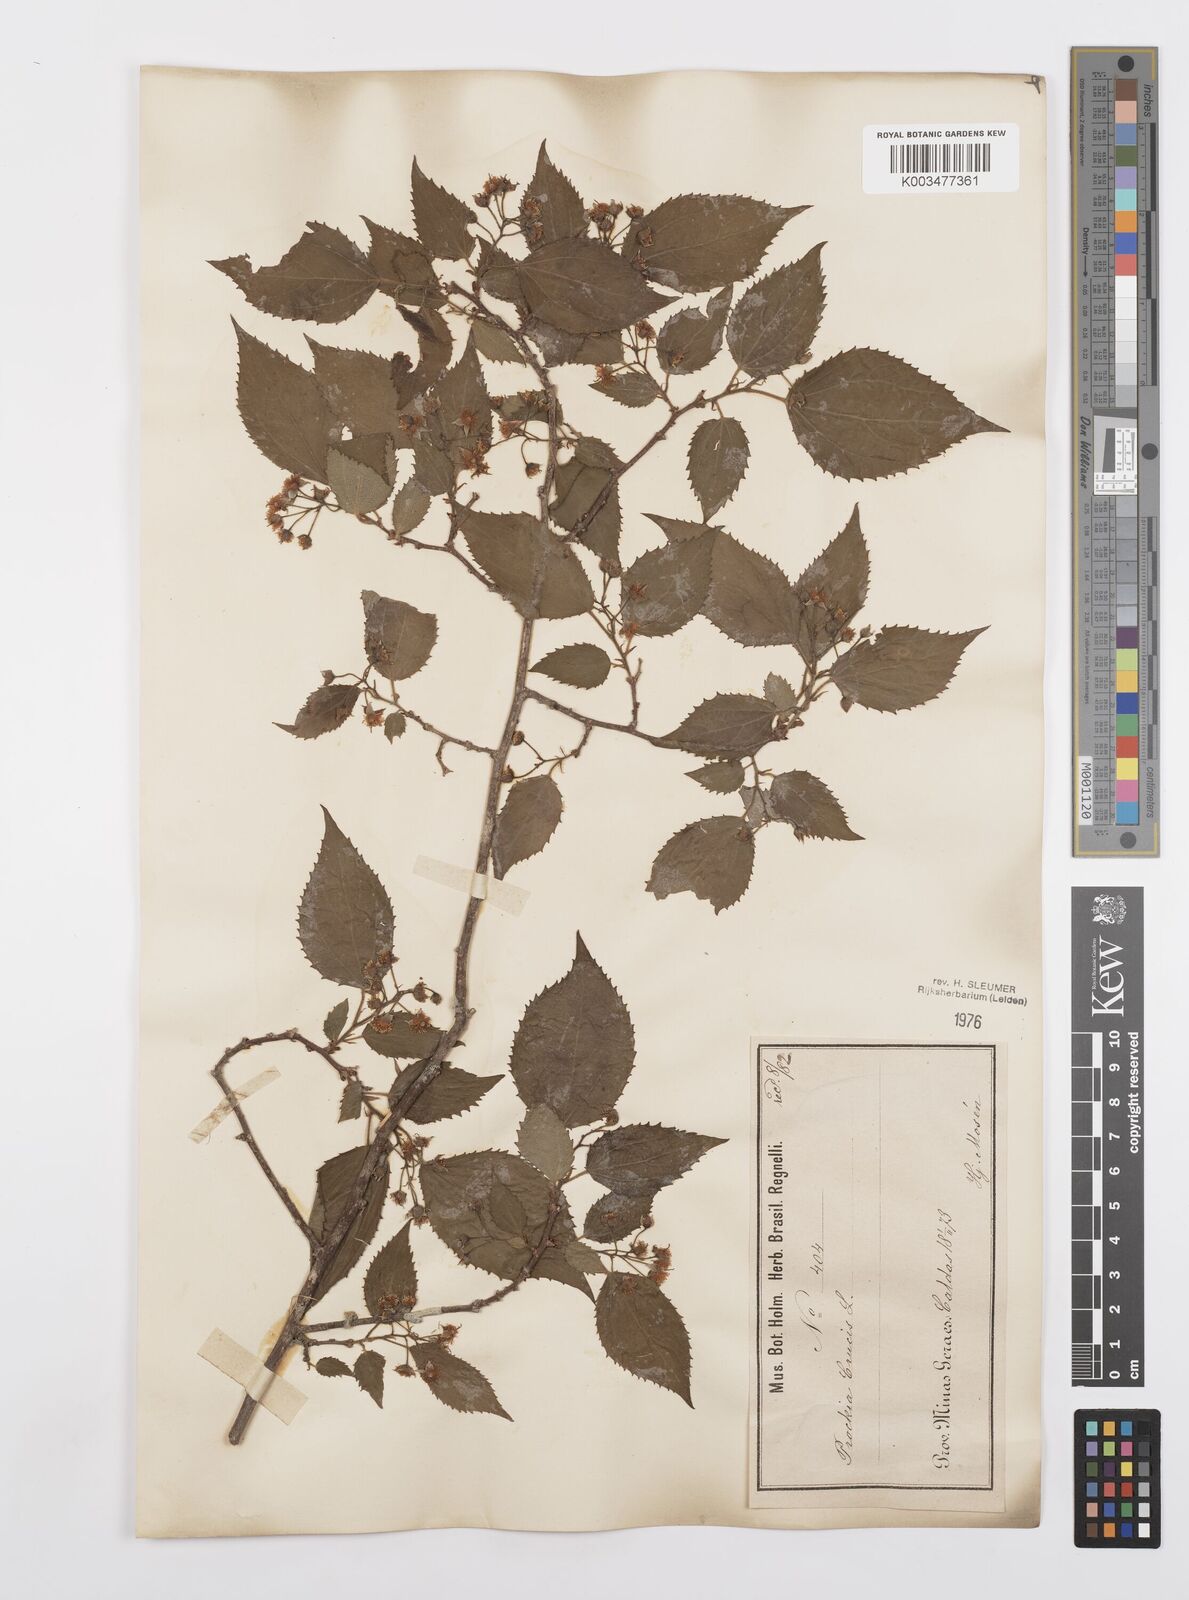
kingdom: Plantae
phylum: Tracheophyta
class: Magnoliopsida
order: Malpighiales
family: Salicaceae
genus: Prockia
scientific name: Prockia crucis
